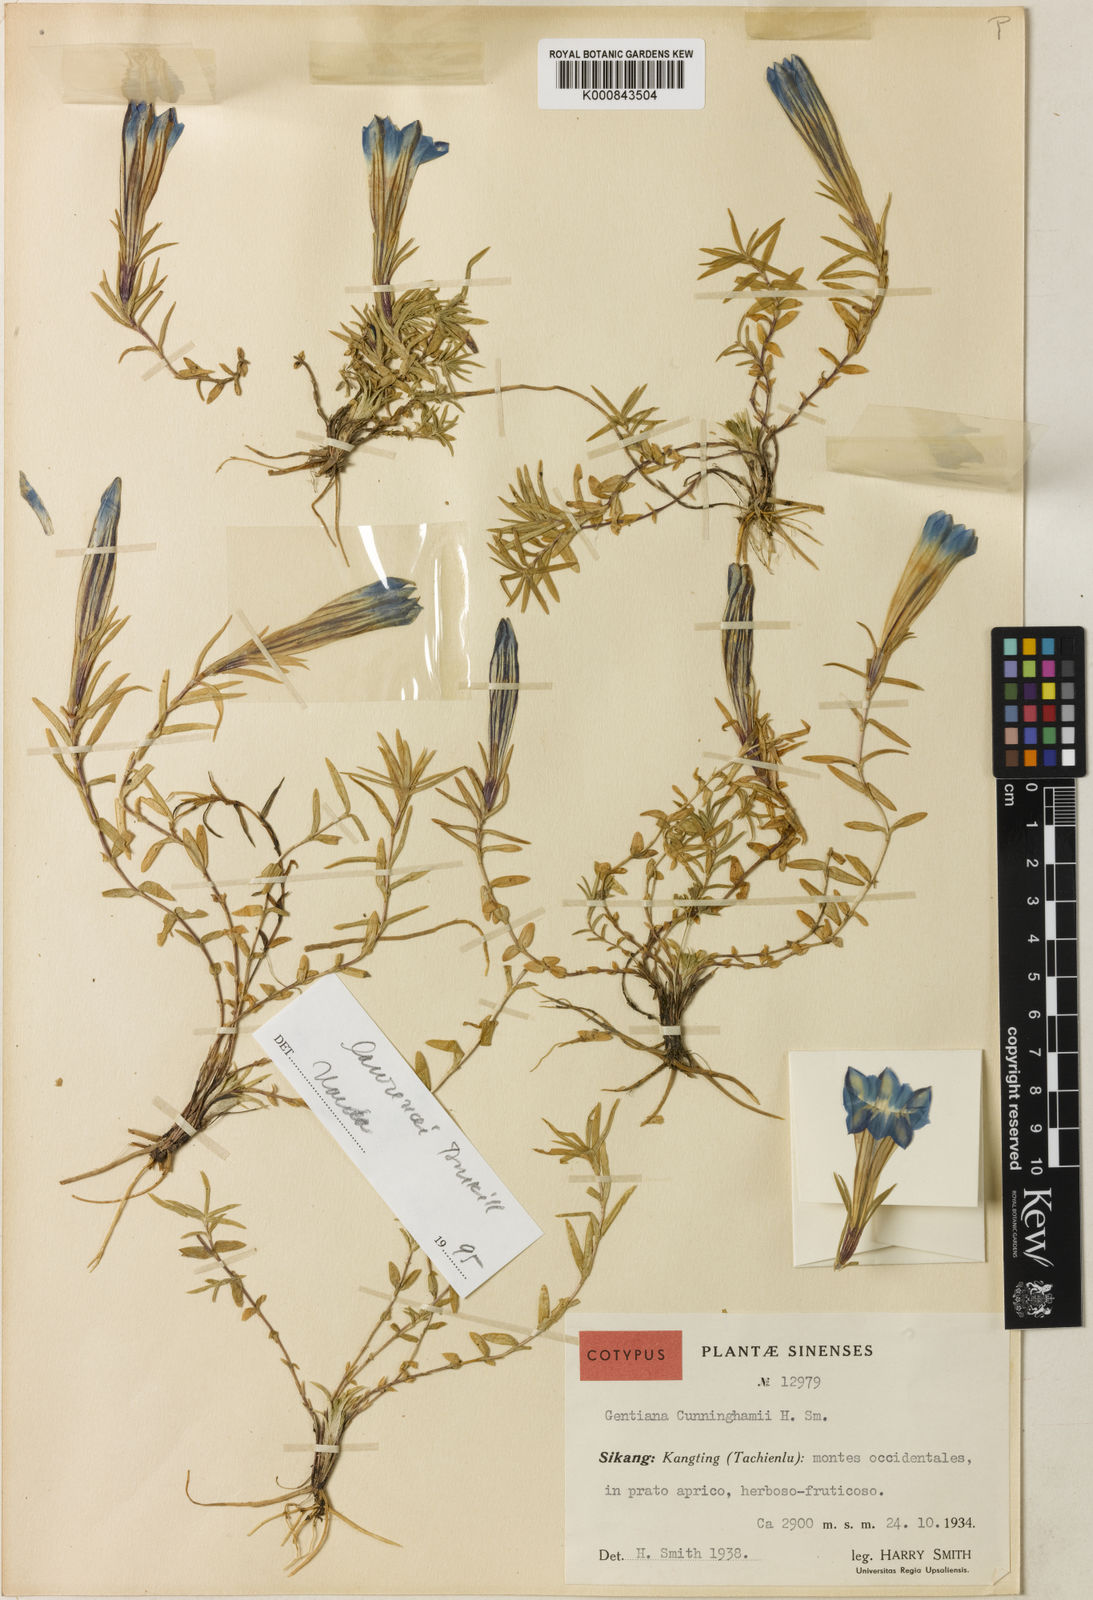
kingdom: Plantae
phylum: Tracheophyta
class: Magnoliopsida
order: Gentianales
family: Gentianaceae
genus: Gentiana
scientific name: Gentiana
